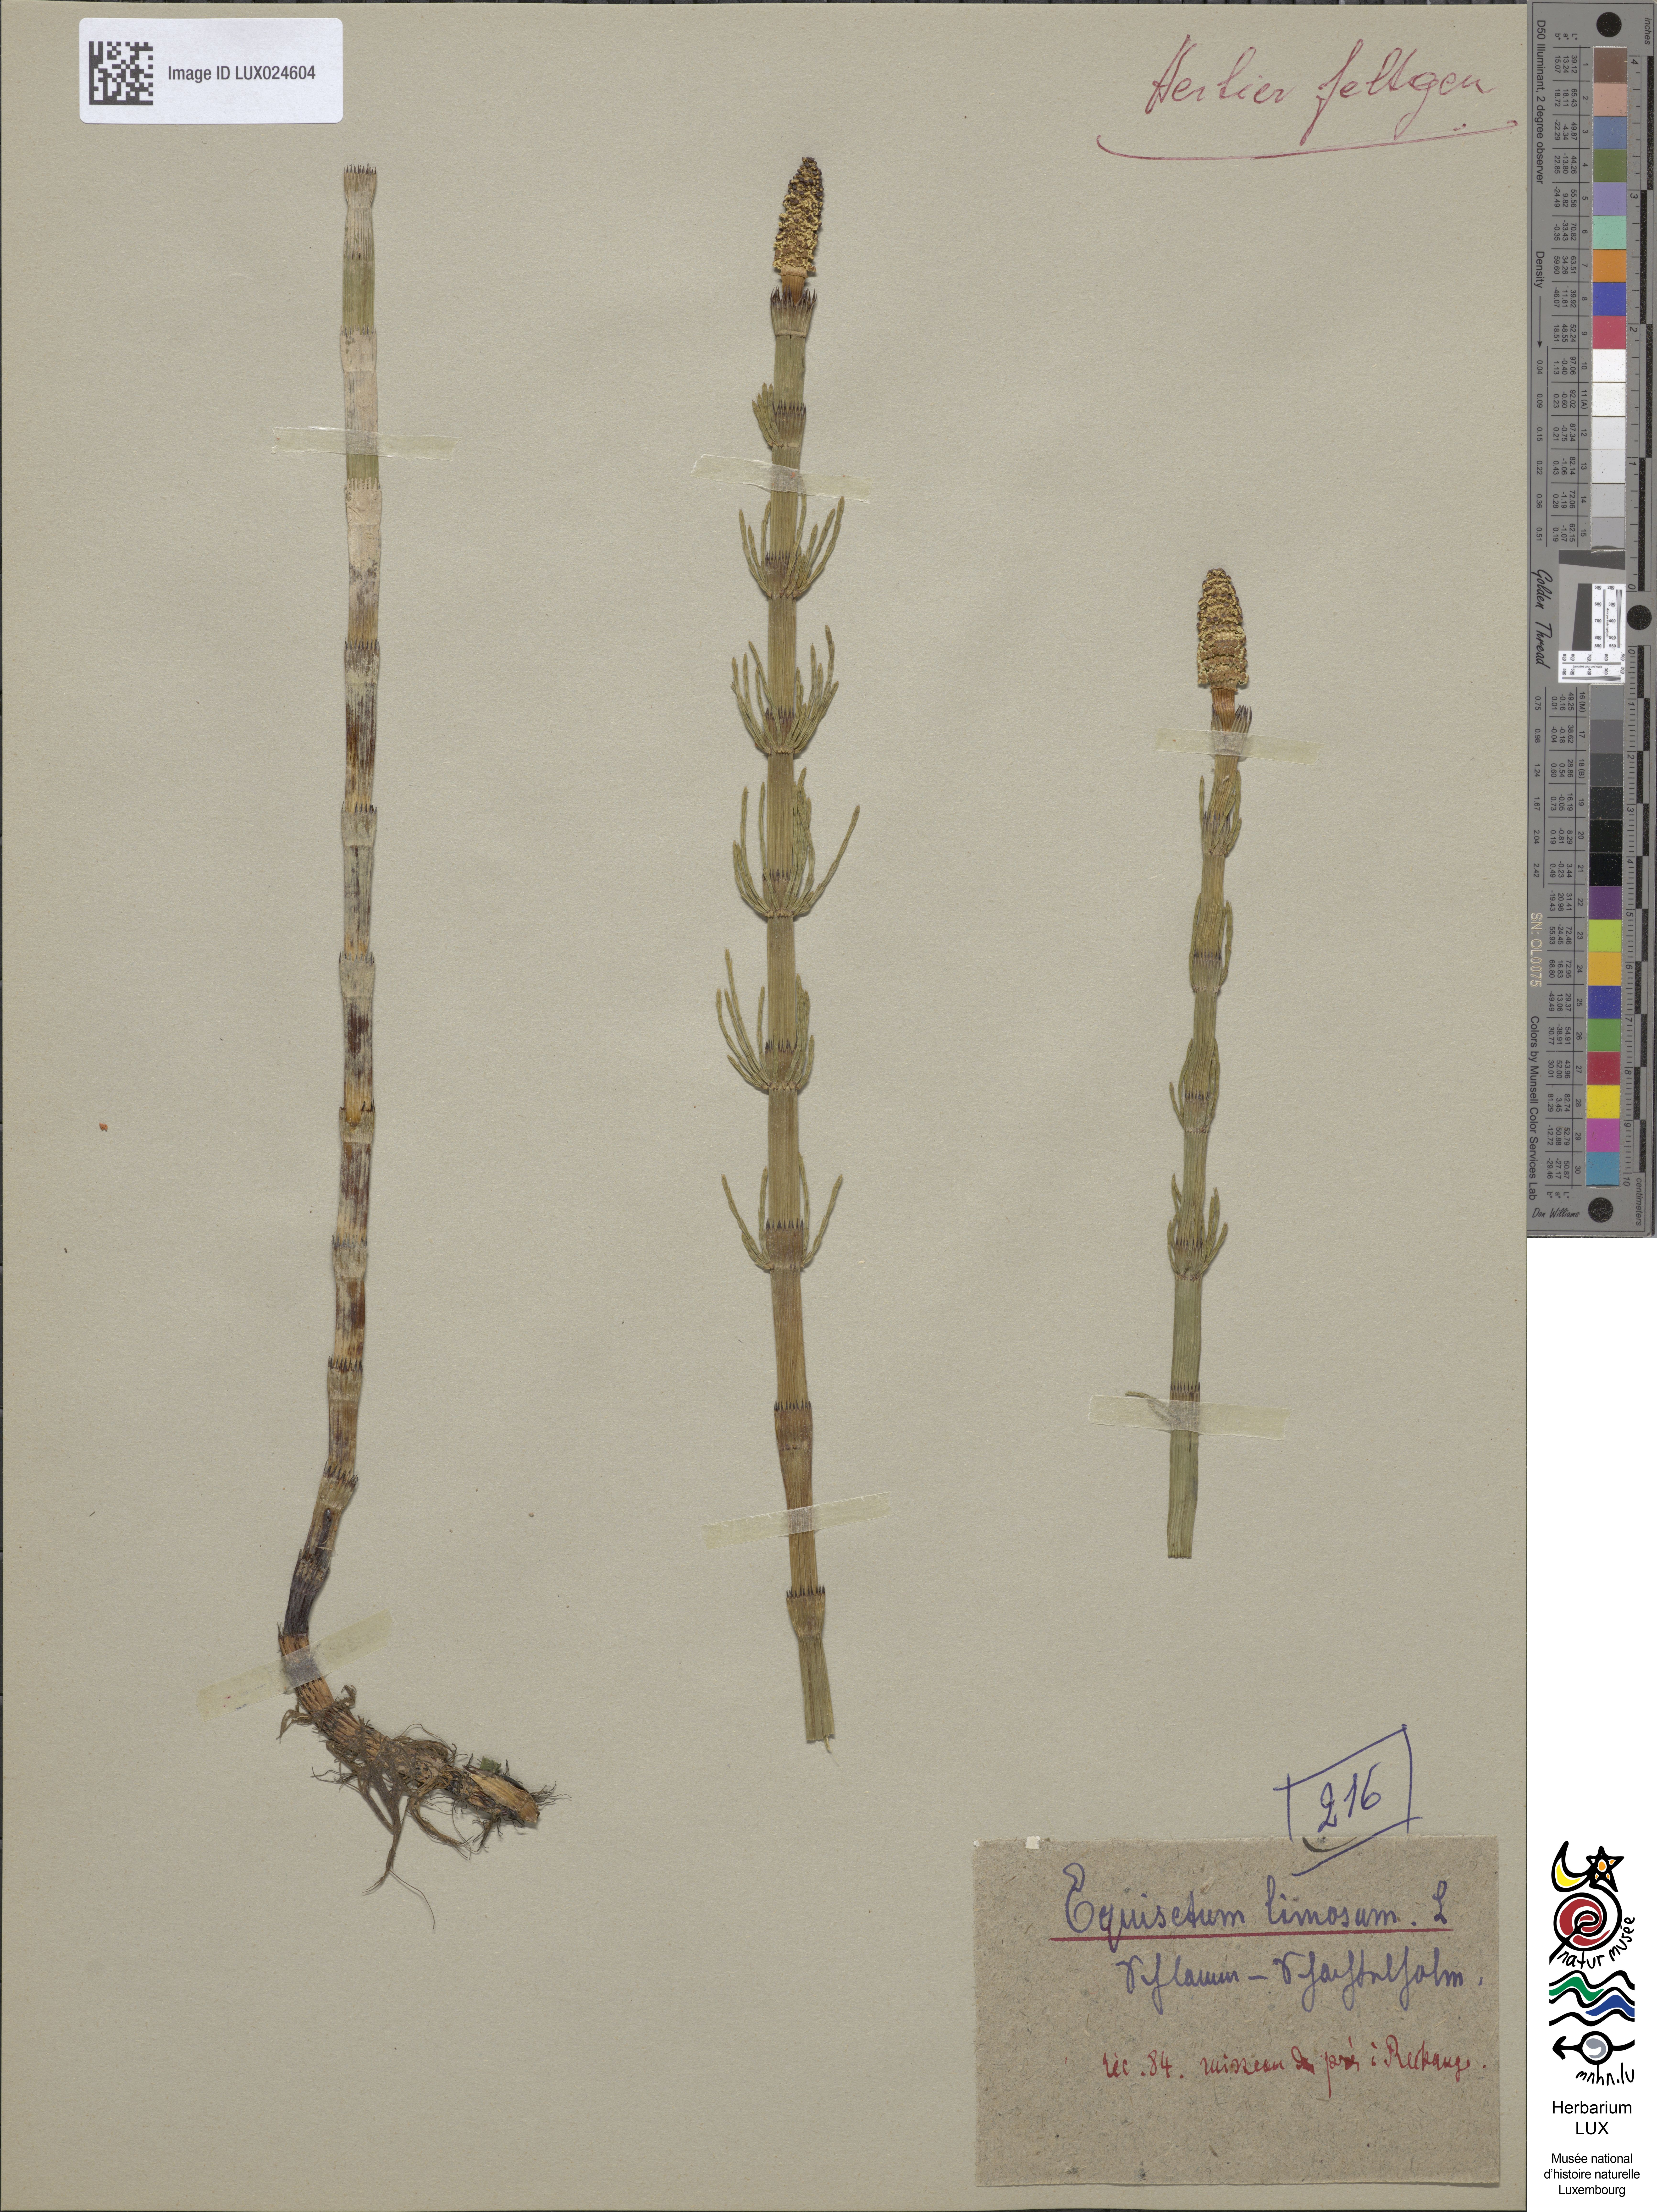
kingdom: Plantae
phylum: Tracheophyta
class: Polypodiopsida
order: Equisetales
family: Equisetaceae
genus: Equisetum
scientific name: Equisetum fluviatile
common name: Water horsetail
